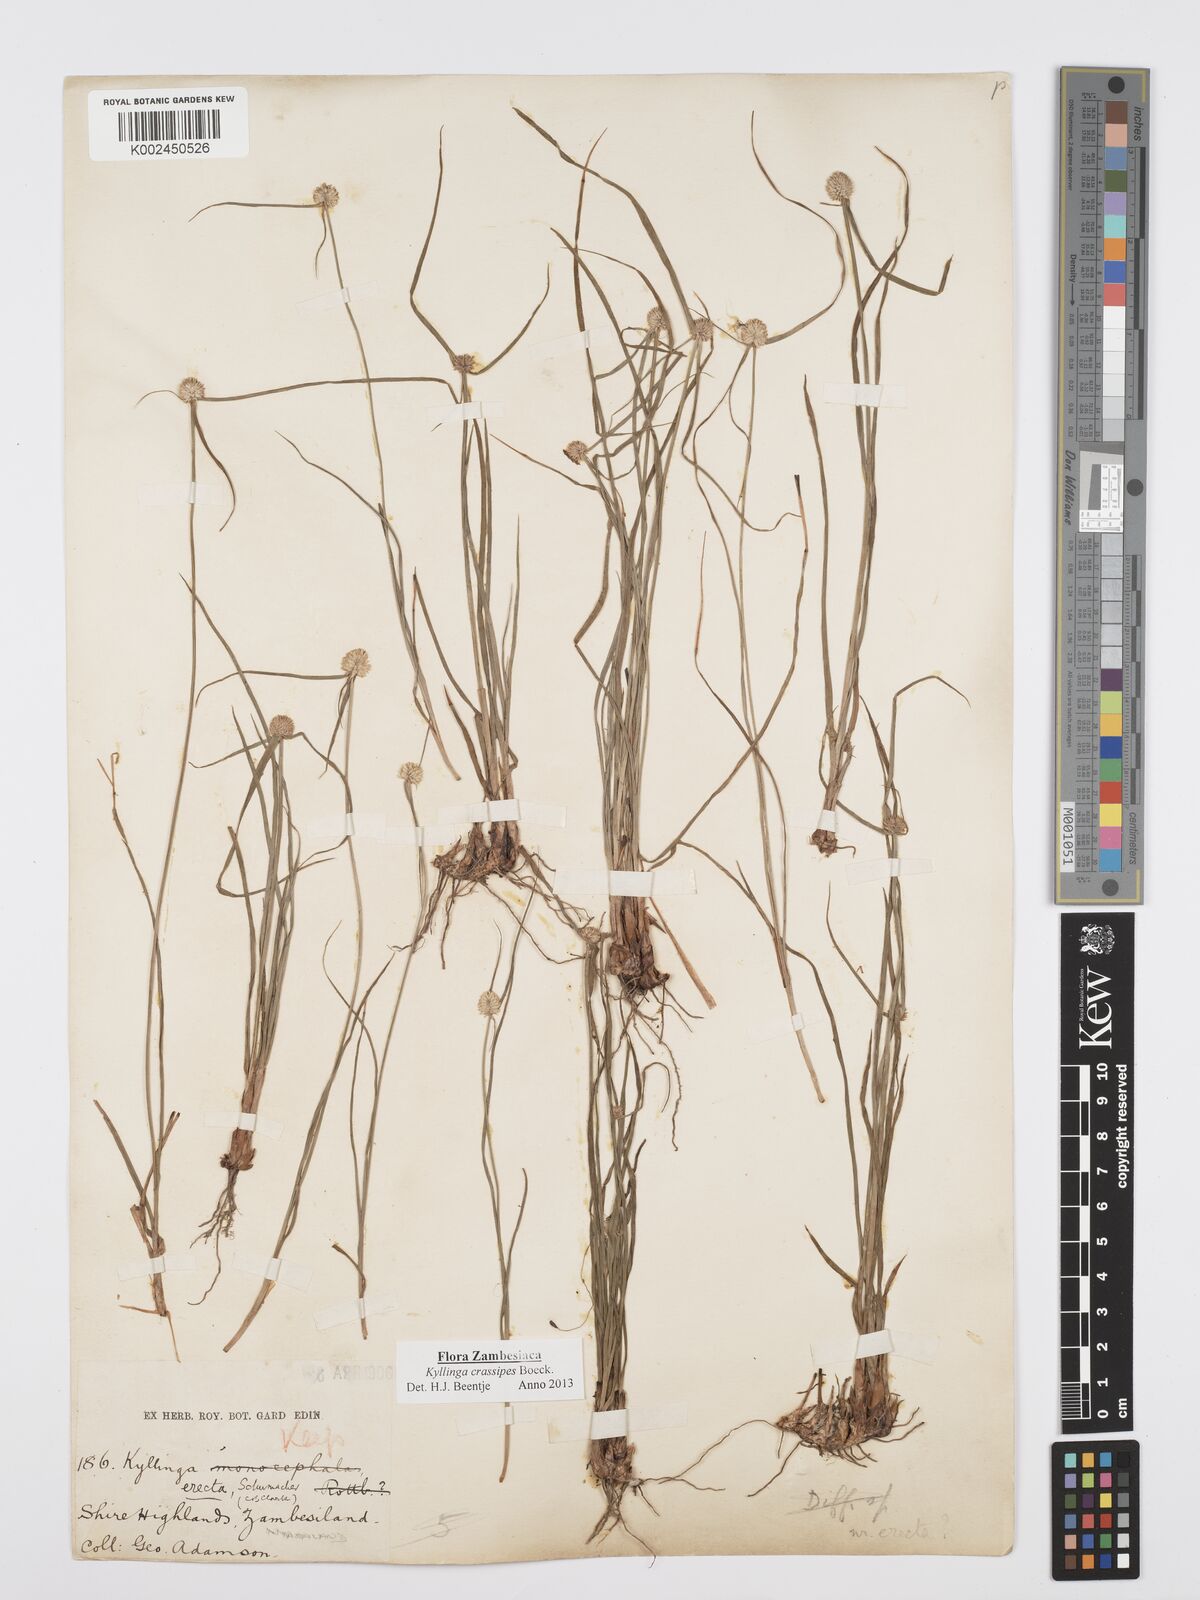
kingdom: Plantae
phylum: Tracheophyta
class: Liliopsida
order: Poales
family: Cyperaceae
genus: Cyperus
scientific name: Cyperus crassipes
